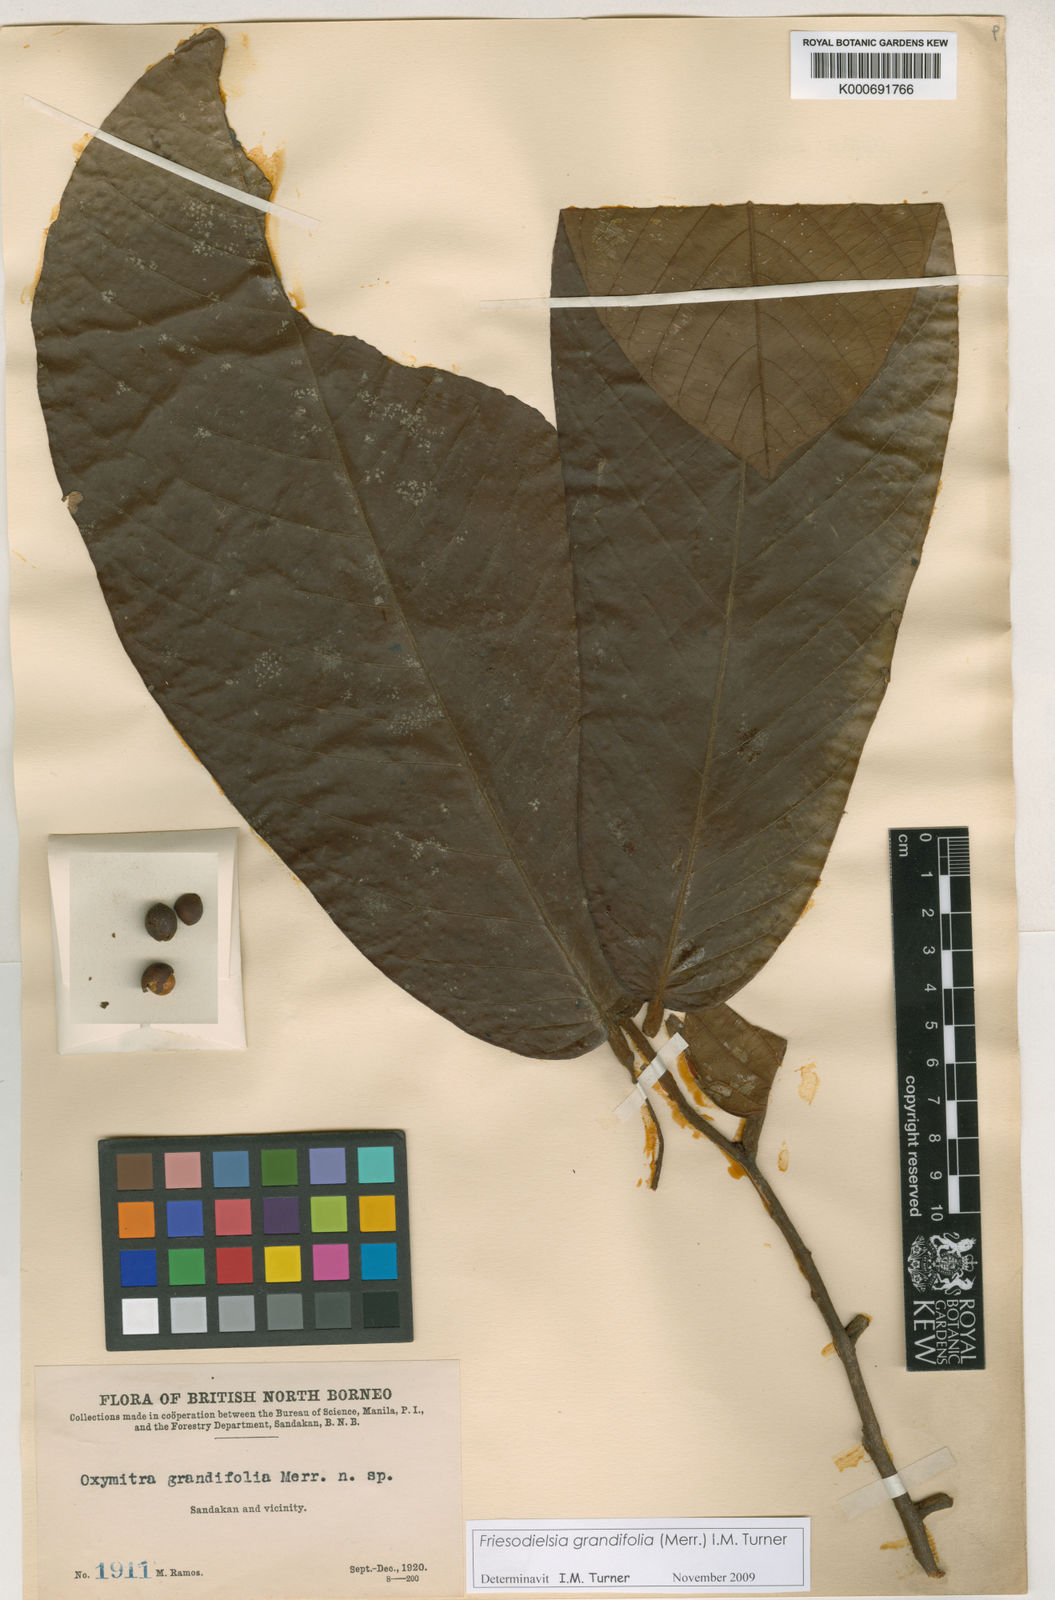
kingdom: Plantae
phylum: Tracheophyta
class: Magnoliopsida
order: Magnoliales
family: Annonaceae
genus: Friesodielsia
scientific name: Friesodielsia grandifolia
